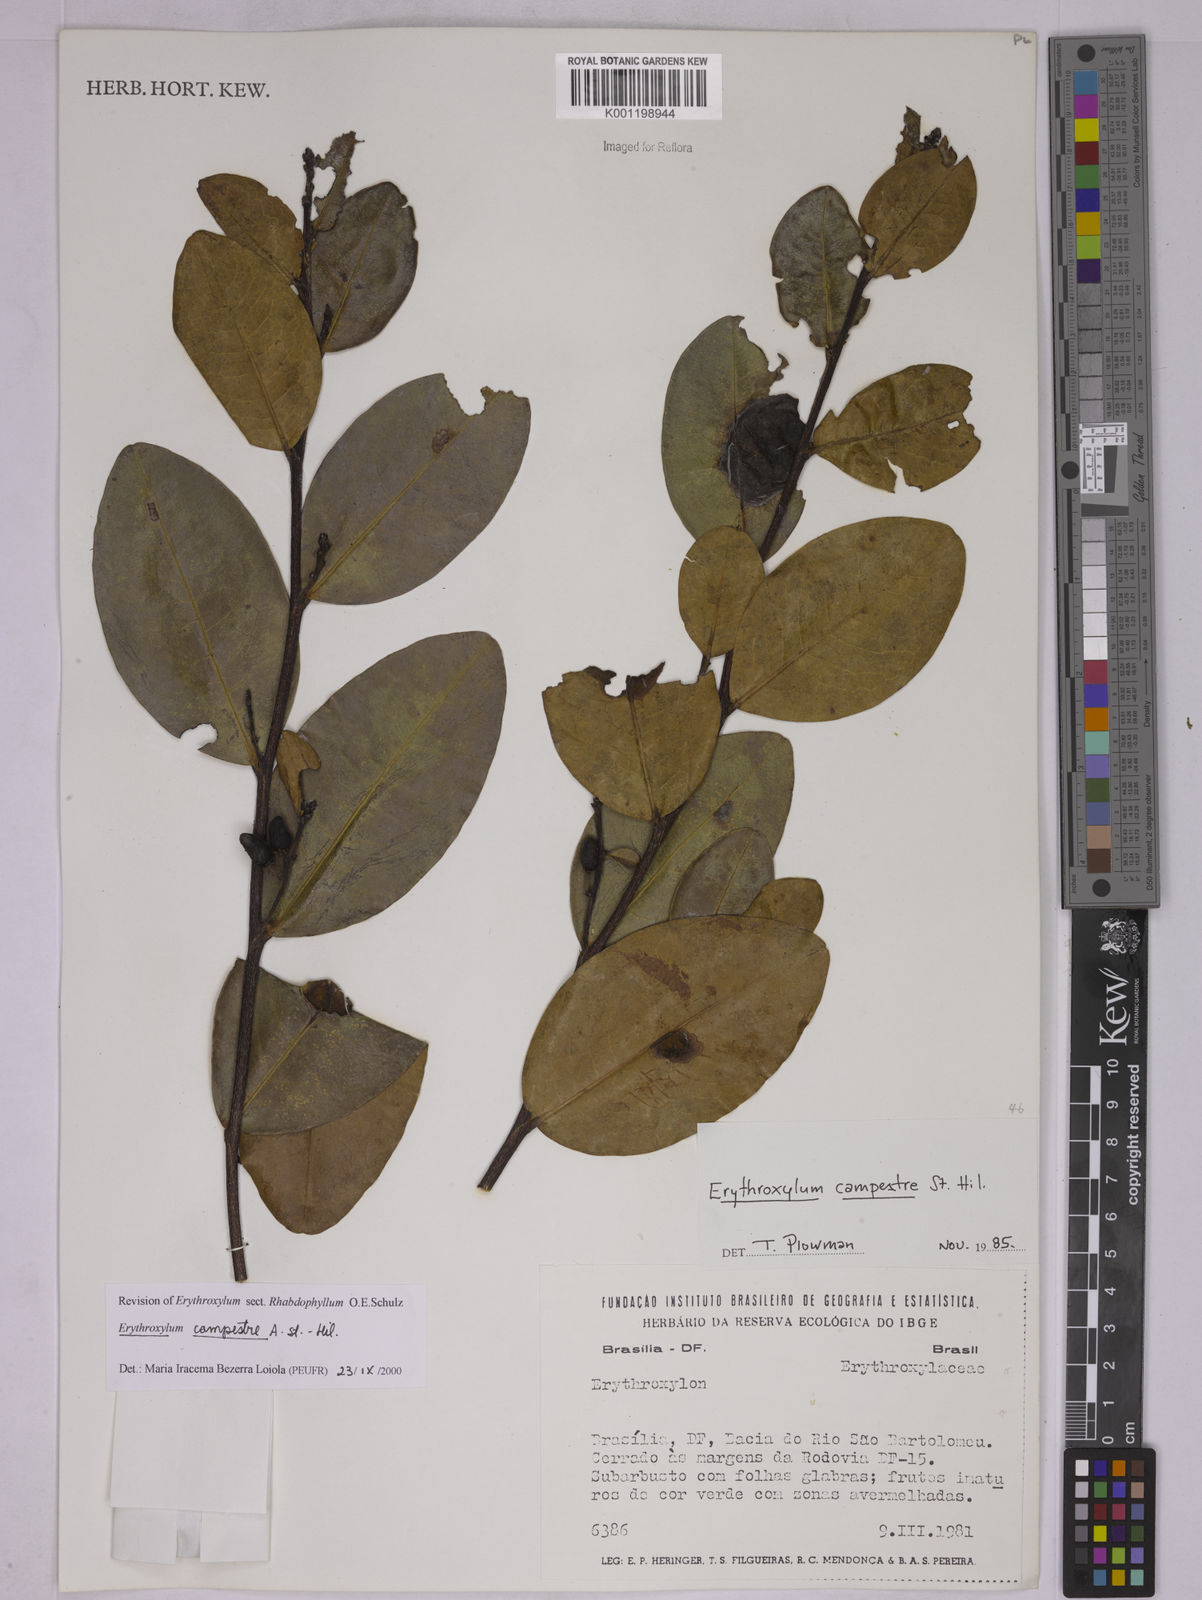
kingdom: Plantae
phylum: Tracheophyta
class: Magnoliopsida
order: Malpighiales
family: Erythroxylaceae
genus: Erythroxylum
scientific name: Erythroxylum campestre
